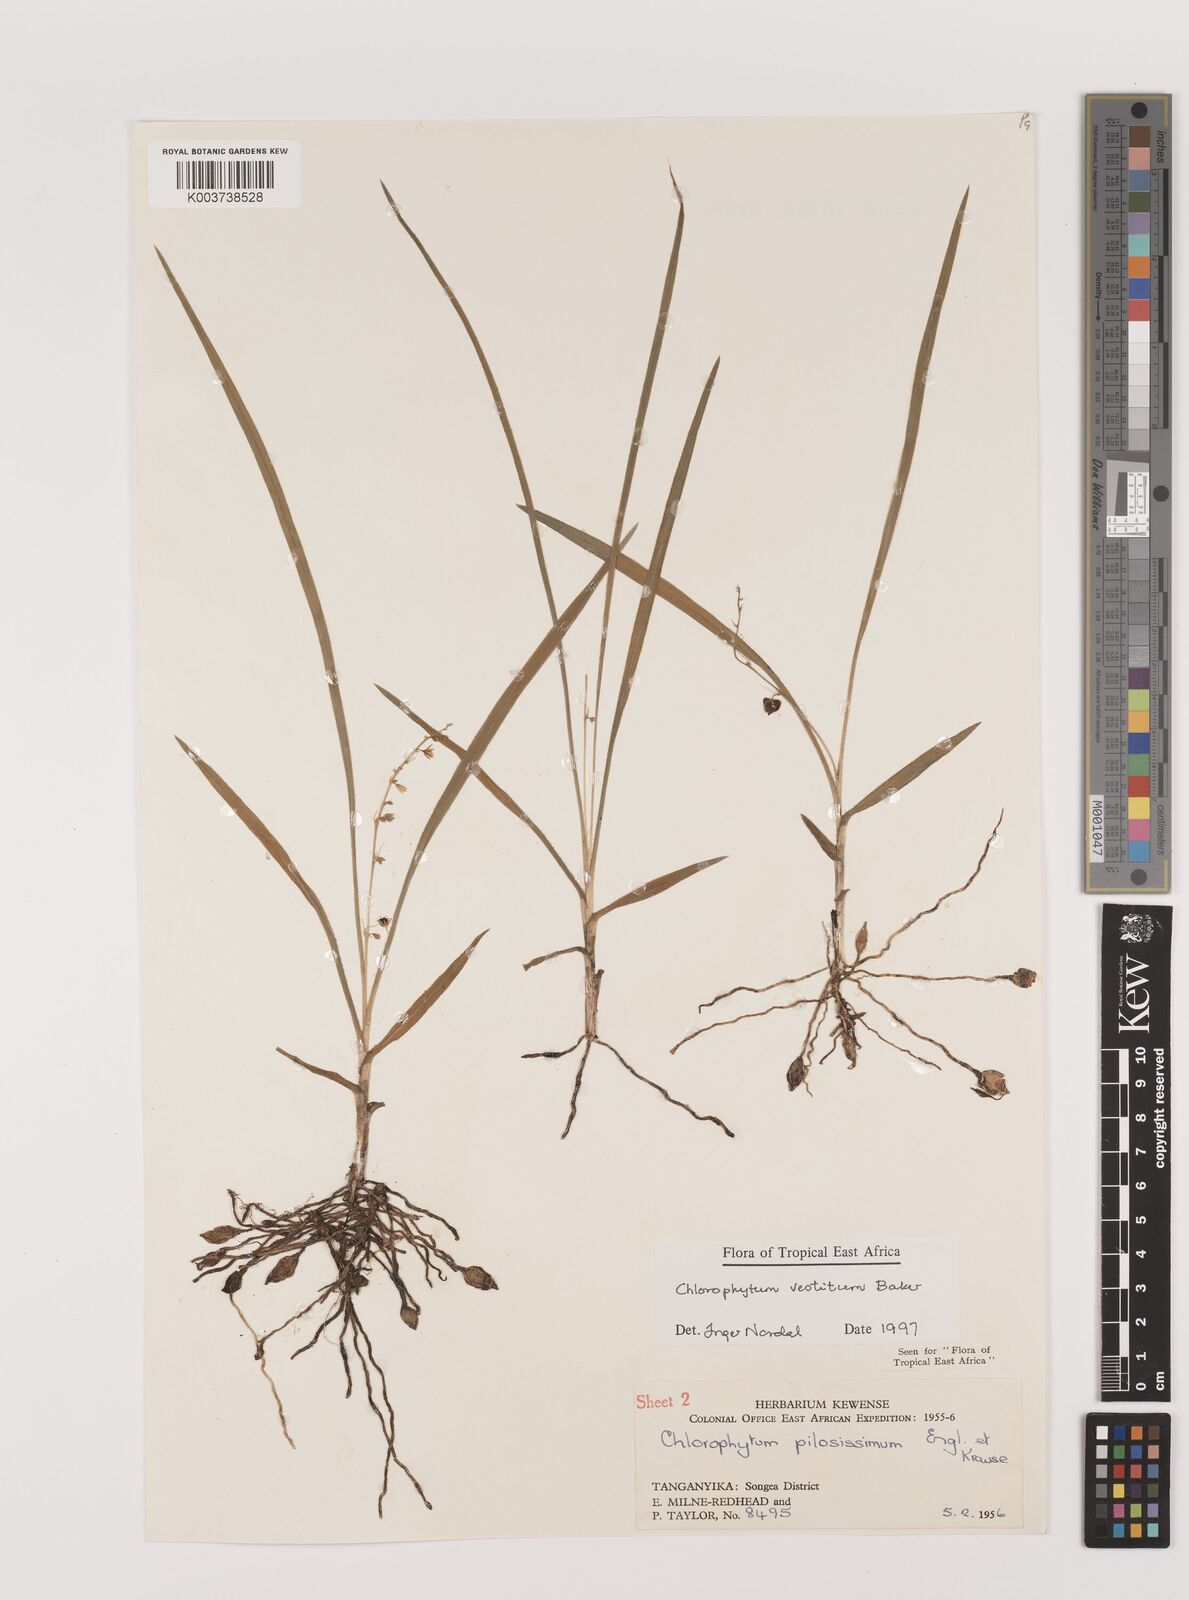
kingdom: Plantae
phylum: Tracheophyta
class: Liliopsida
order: Asparagales
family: Asparagaceae
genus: Chlorophytum
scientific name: Chlorophytum vestitum
